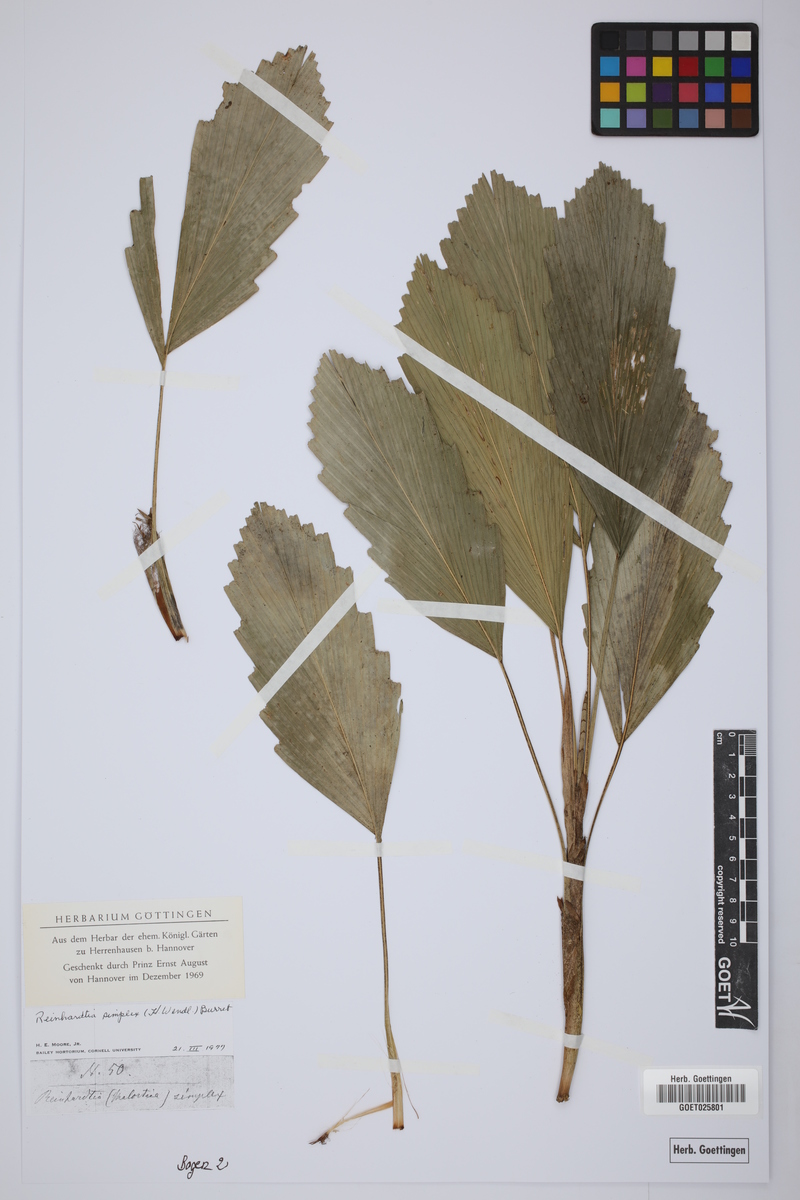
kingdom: Plantae
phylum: Tracheophyta
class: Liliopsida
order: Arecales
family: Arecaceae
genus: Reinhardtia
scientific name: Reinhardtia simplex
